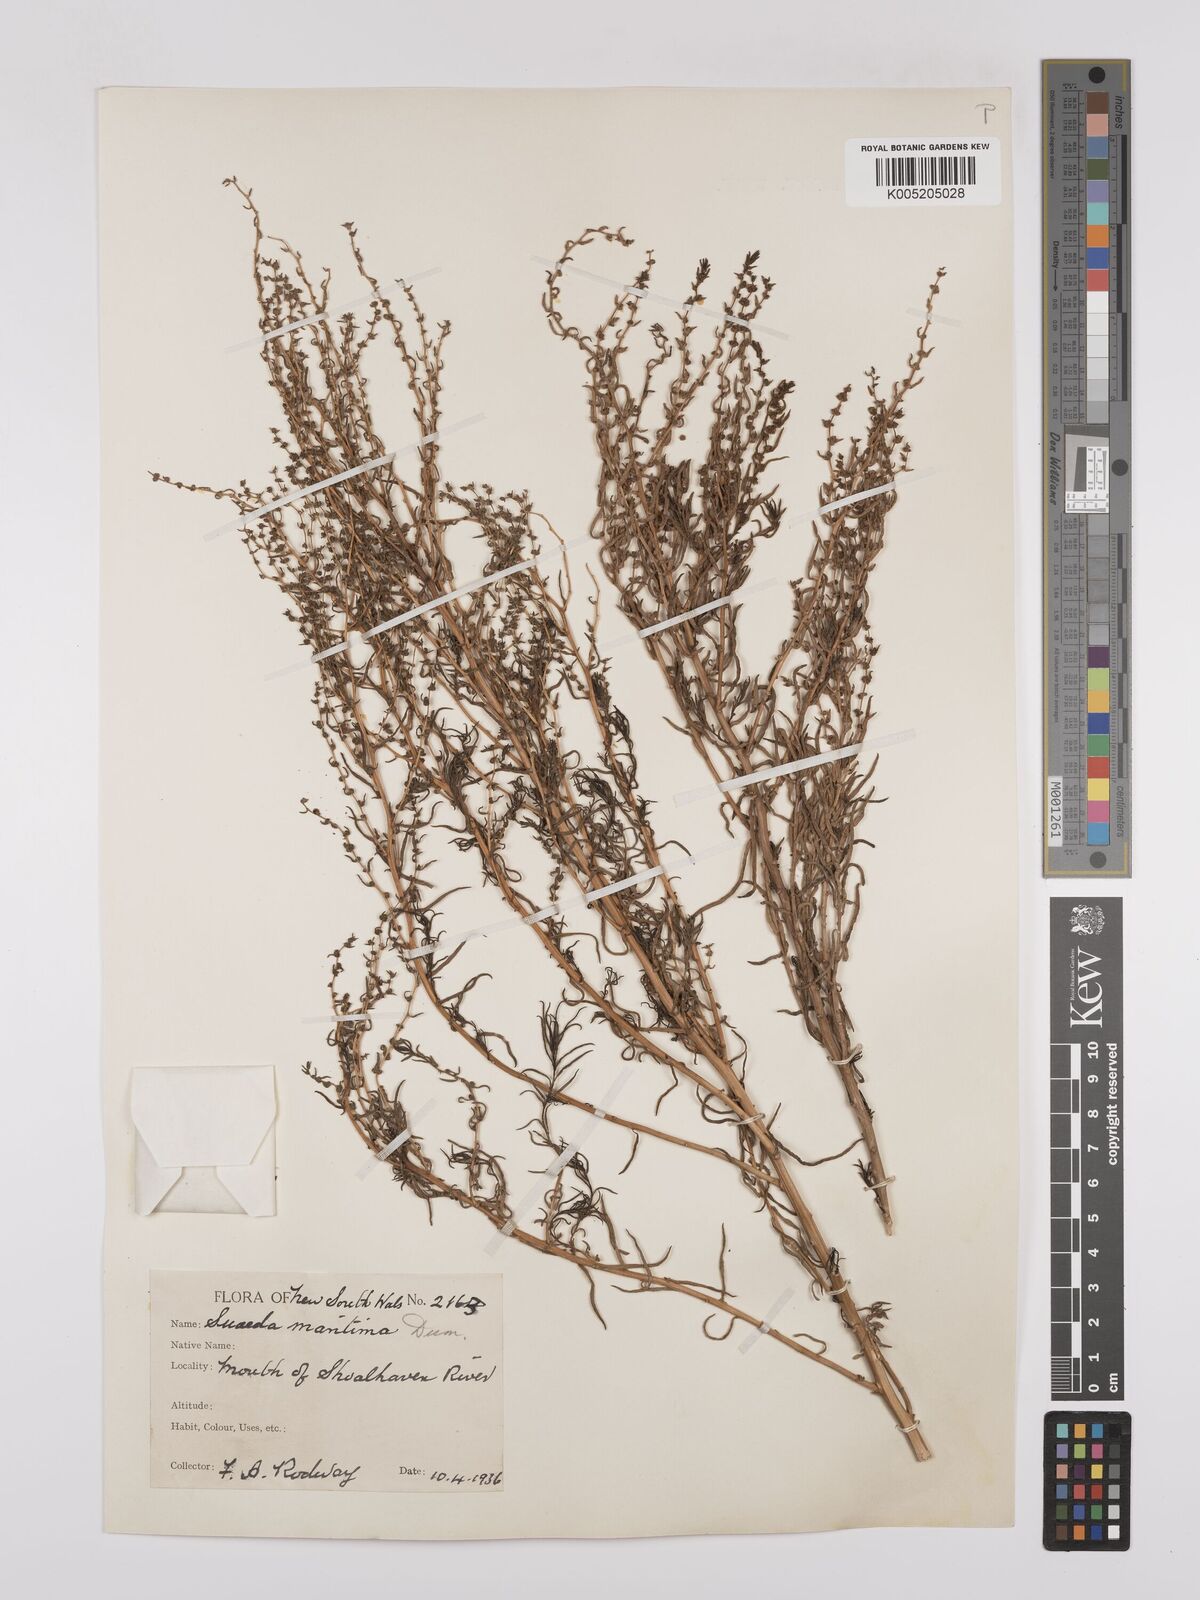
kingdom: Plantae
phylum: Tracheophyta
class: Magnoliopsida
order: Caryophyllales
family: Amaranthaceae
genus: Suaeda
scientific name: Suaeda australis
